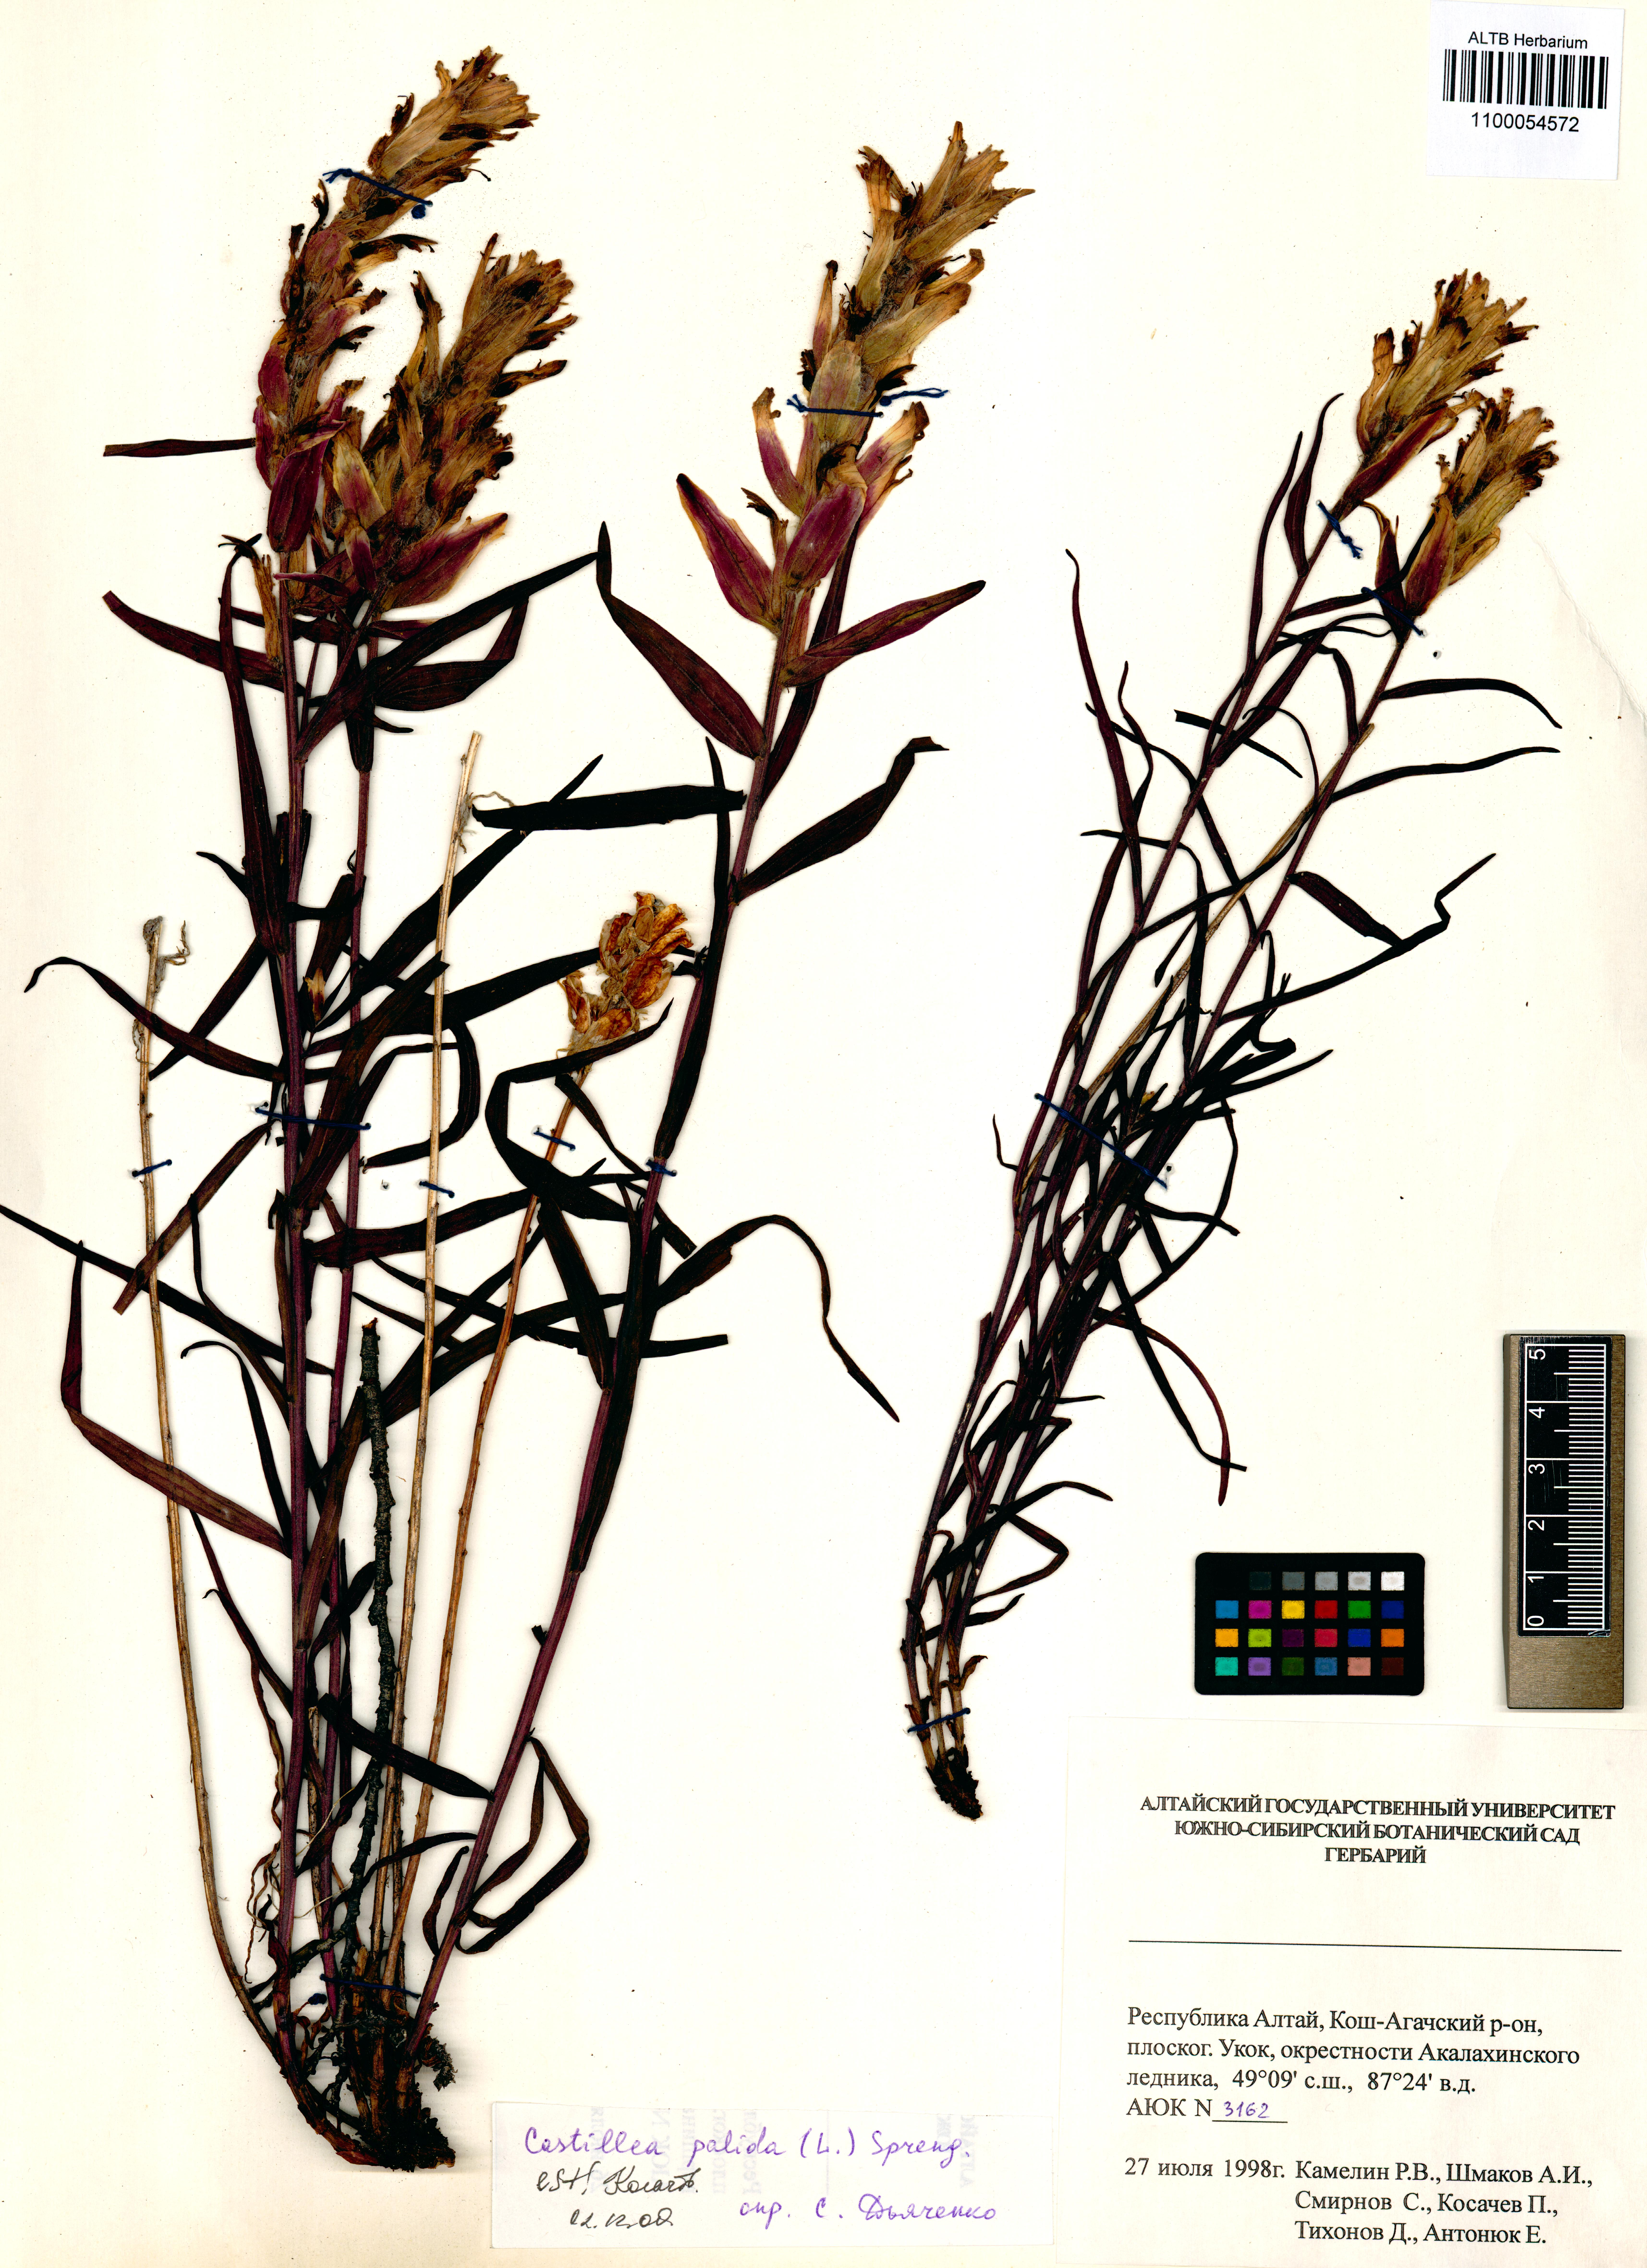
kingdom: Plantae
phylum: Tracheophyta
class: Magnoliopsida
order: Lamiales
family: Orobanchaceae
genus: Castilleja
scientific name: Castilleja pallida
